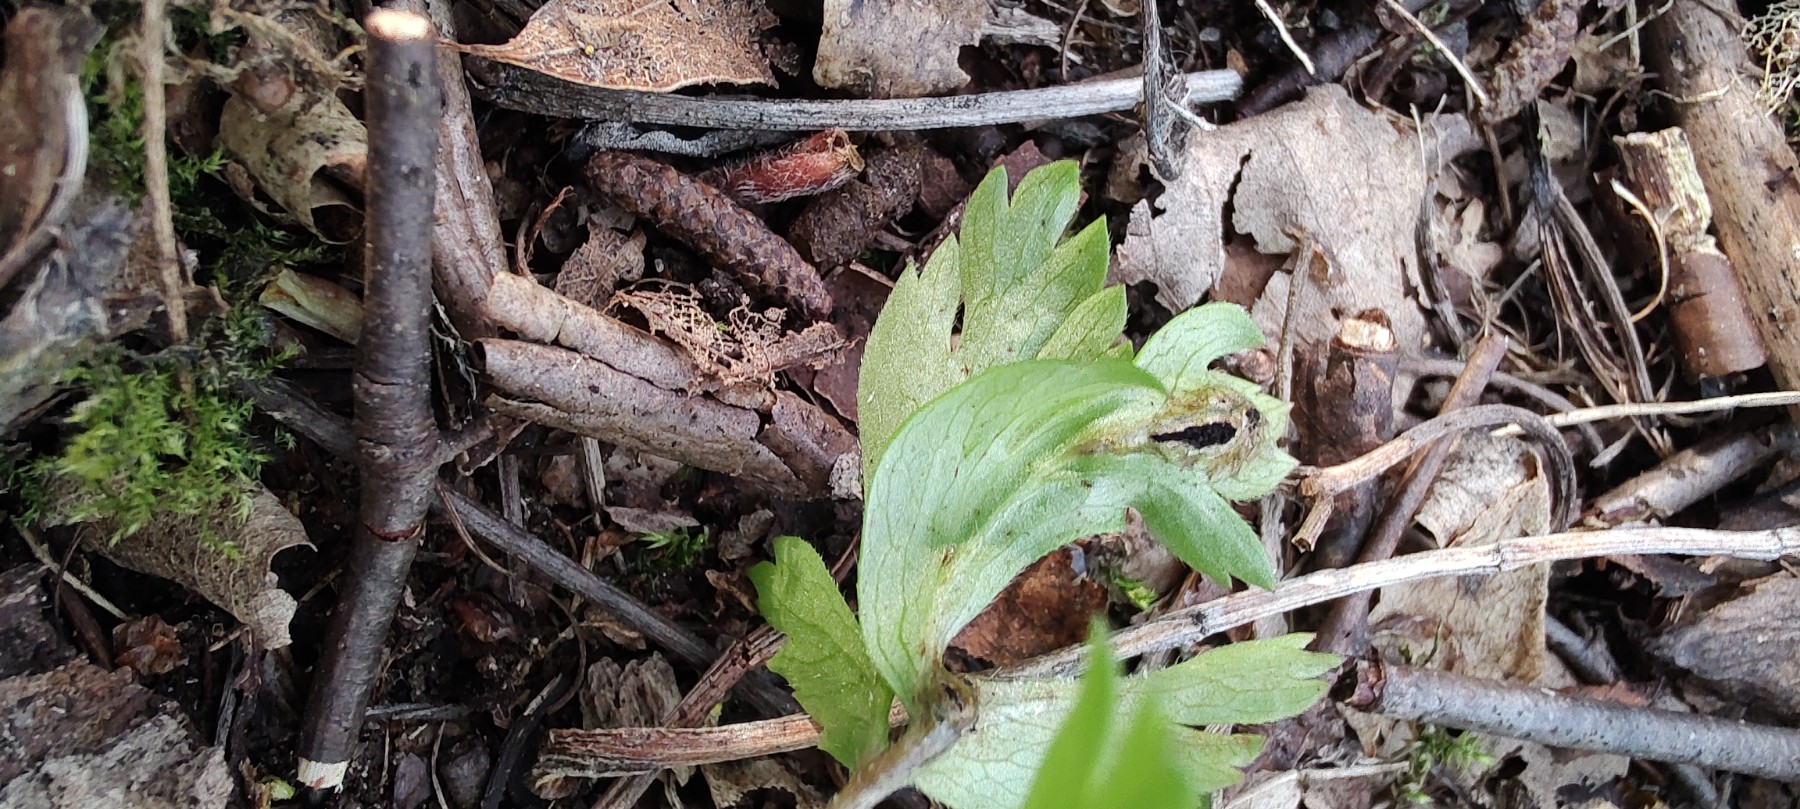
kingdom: Fungi
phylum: Basidiomycota
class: Ustilaginomycetes
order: Urocystidales
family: Urocystidaceae
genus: Urocystis
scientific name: Urocystis anemones
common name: anemone-brand
